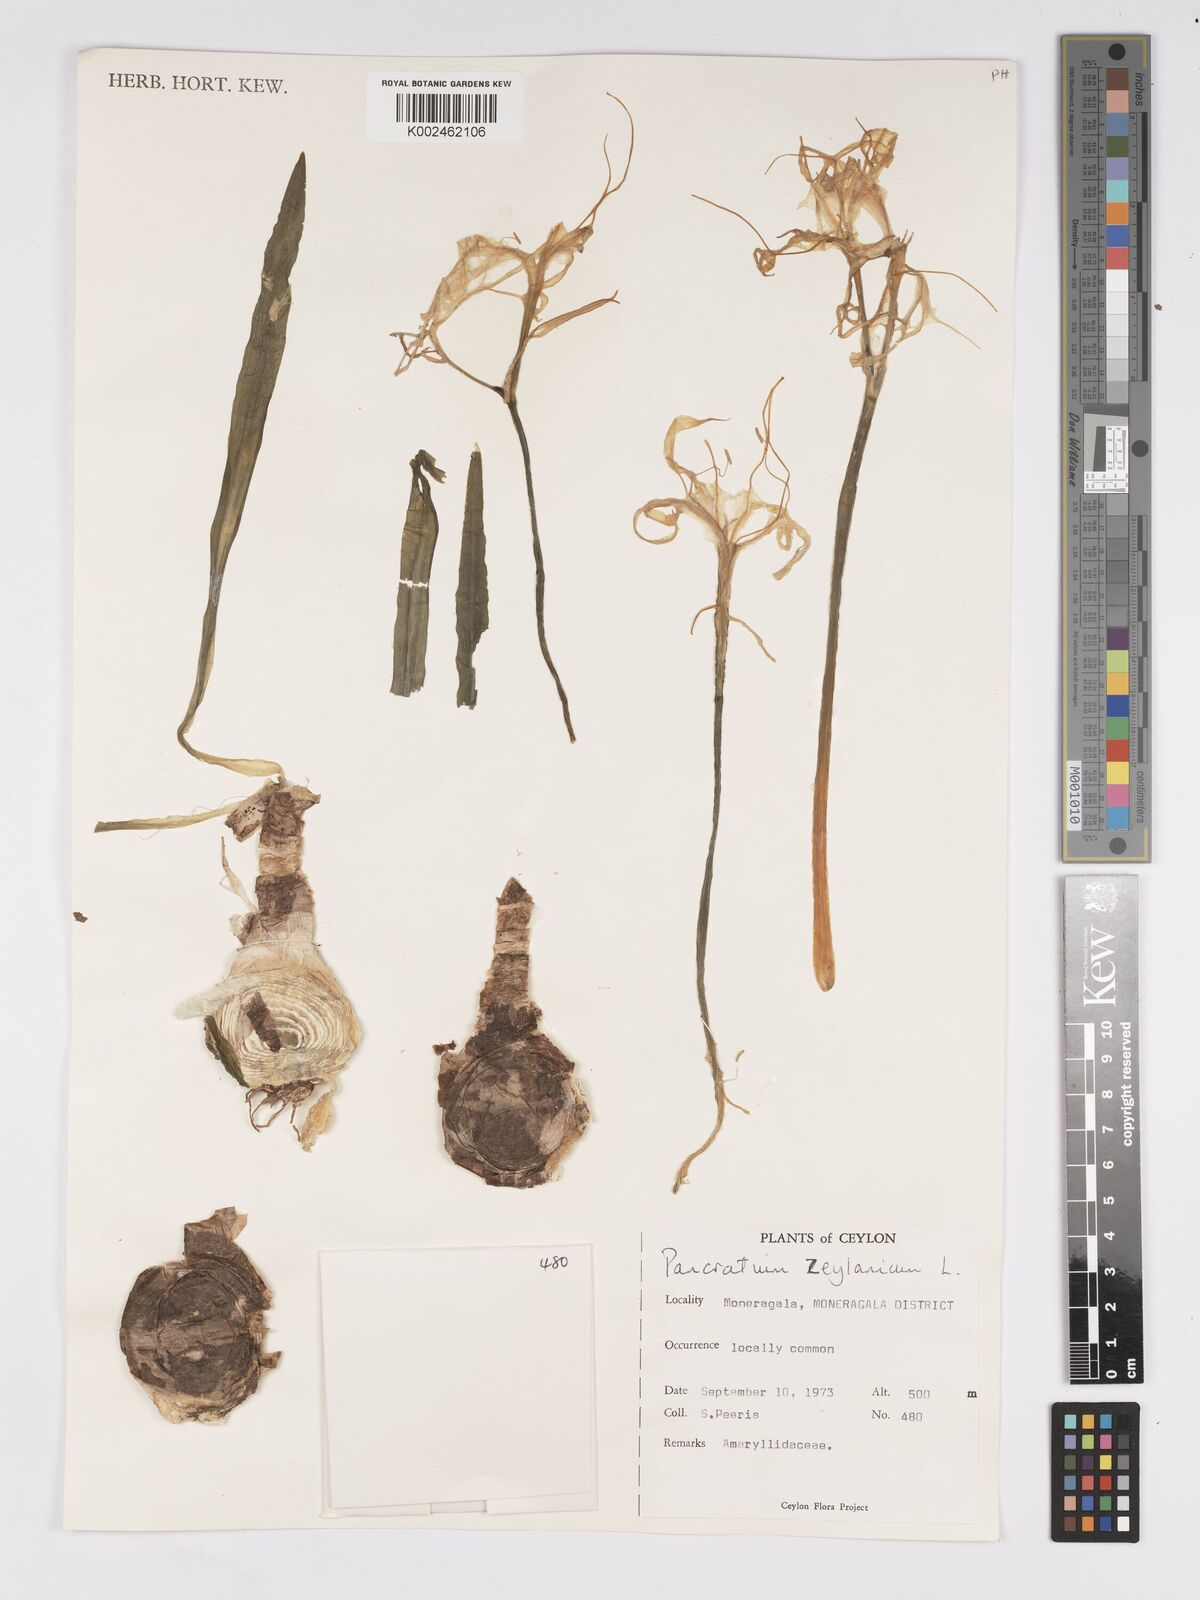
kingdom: Plantae
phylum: Tracheophyta
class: Liliopsida
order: Asparagales
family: Amaryllidaceae
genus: Pancratium
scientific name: Pancratium zeylanicum
